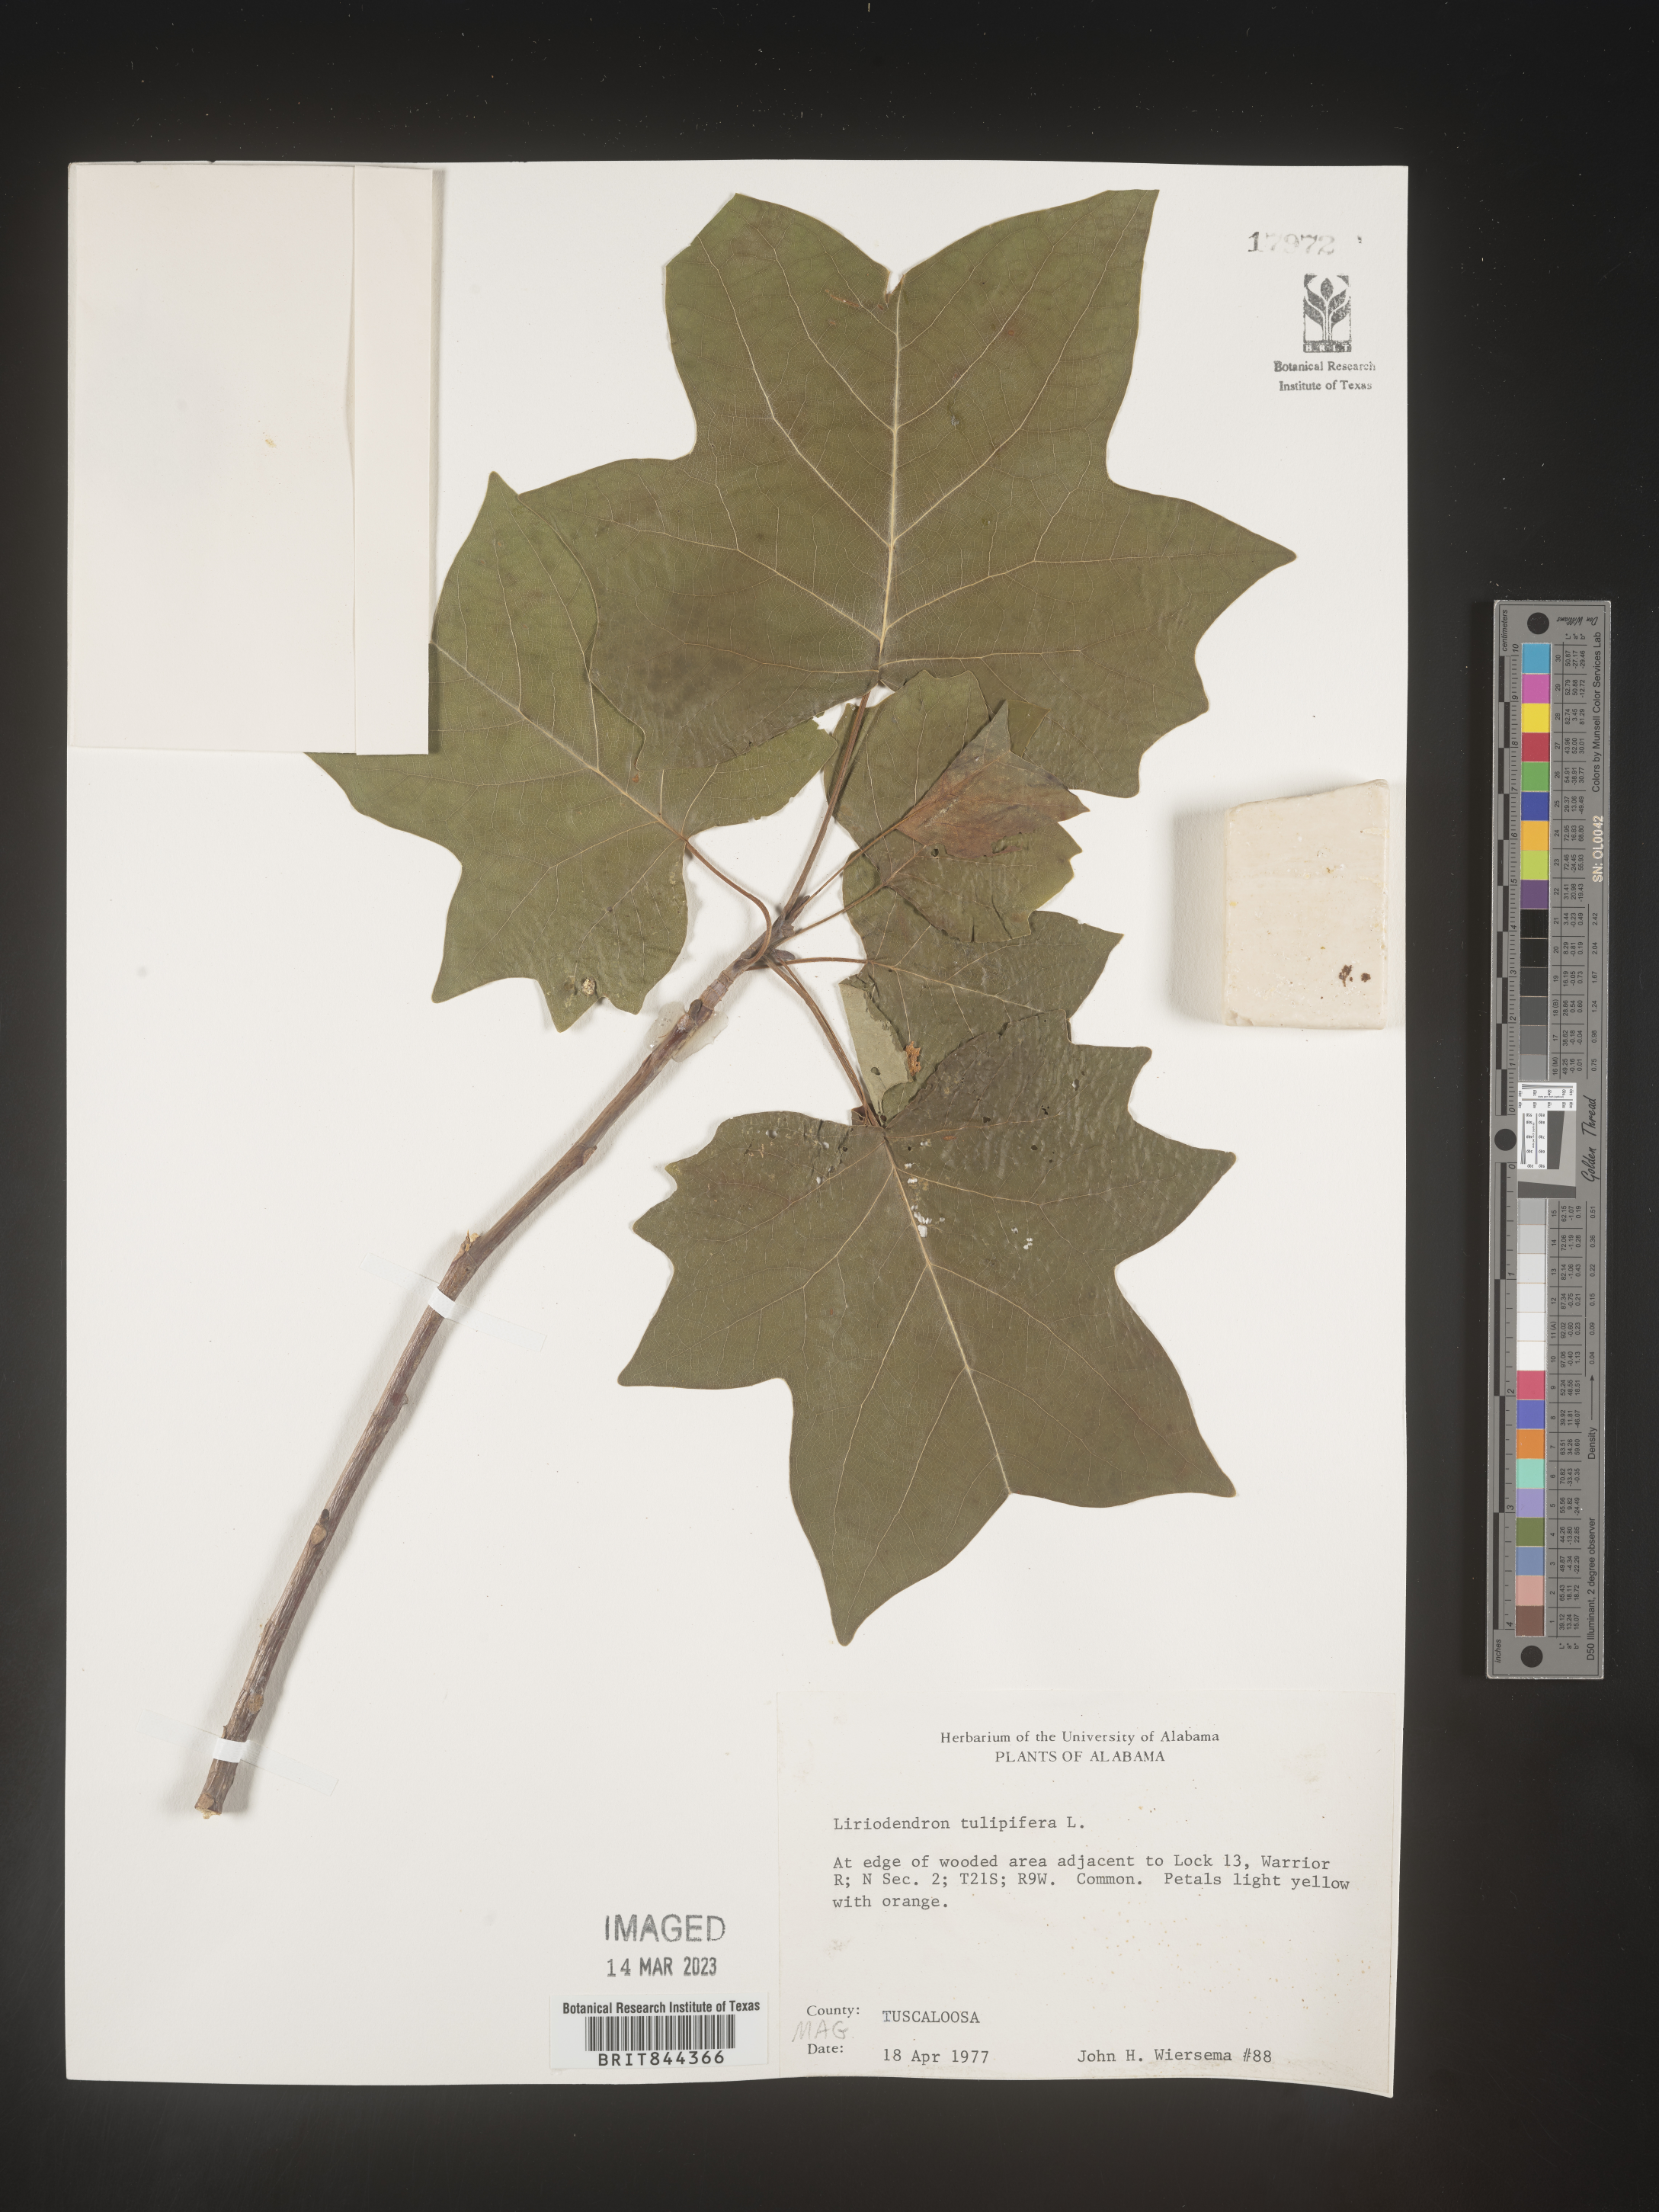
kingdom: Plantae
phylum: Tracheophyta
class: Magnoliopsida
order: Magnoliales
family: Magnoliaceae
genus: Liriodendron
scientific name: Liriodendron tulipifera
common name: Tulip tree
